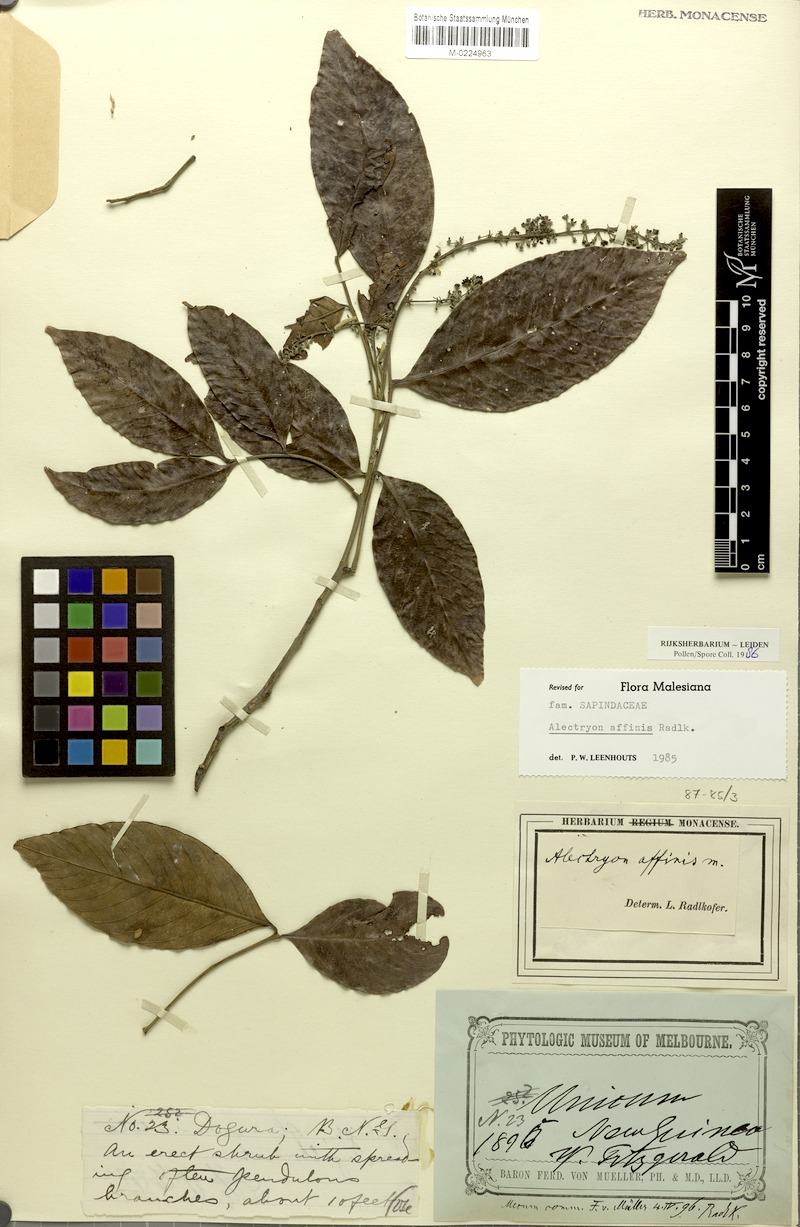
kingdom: Plantae
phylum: Tracheophyta
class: Magnoliopsida
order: Sapindales
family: Sapindaceae
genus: Alectryon
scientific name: Alectryon affinis
